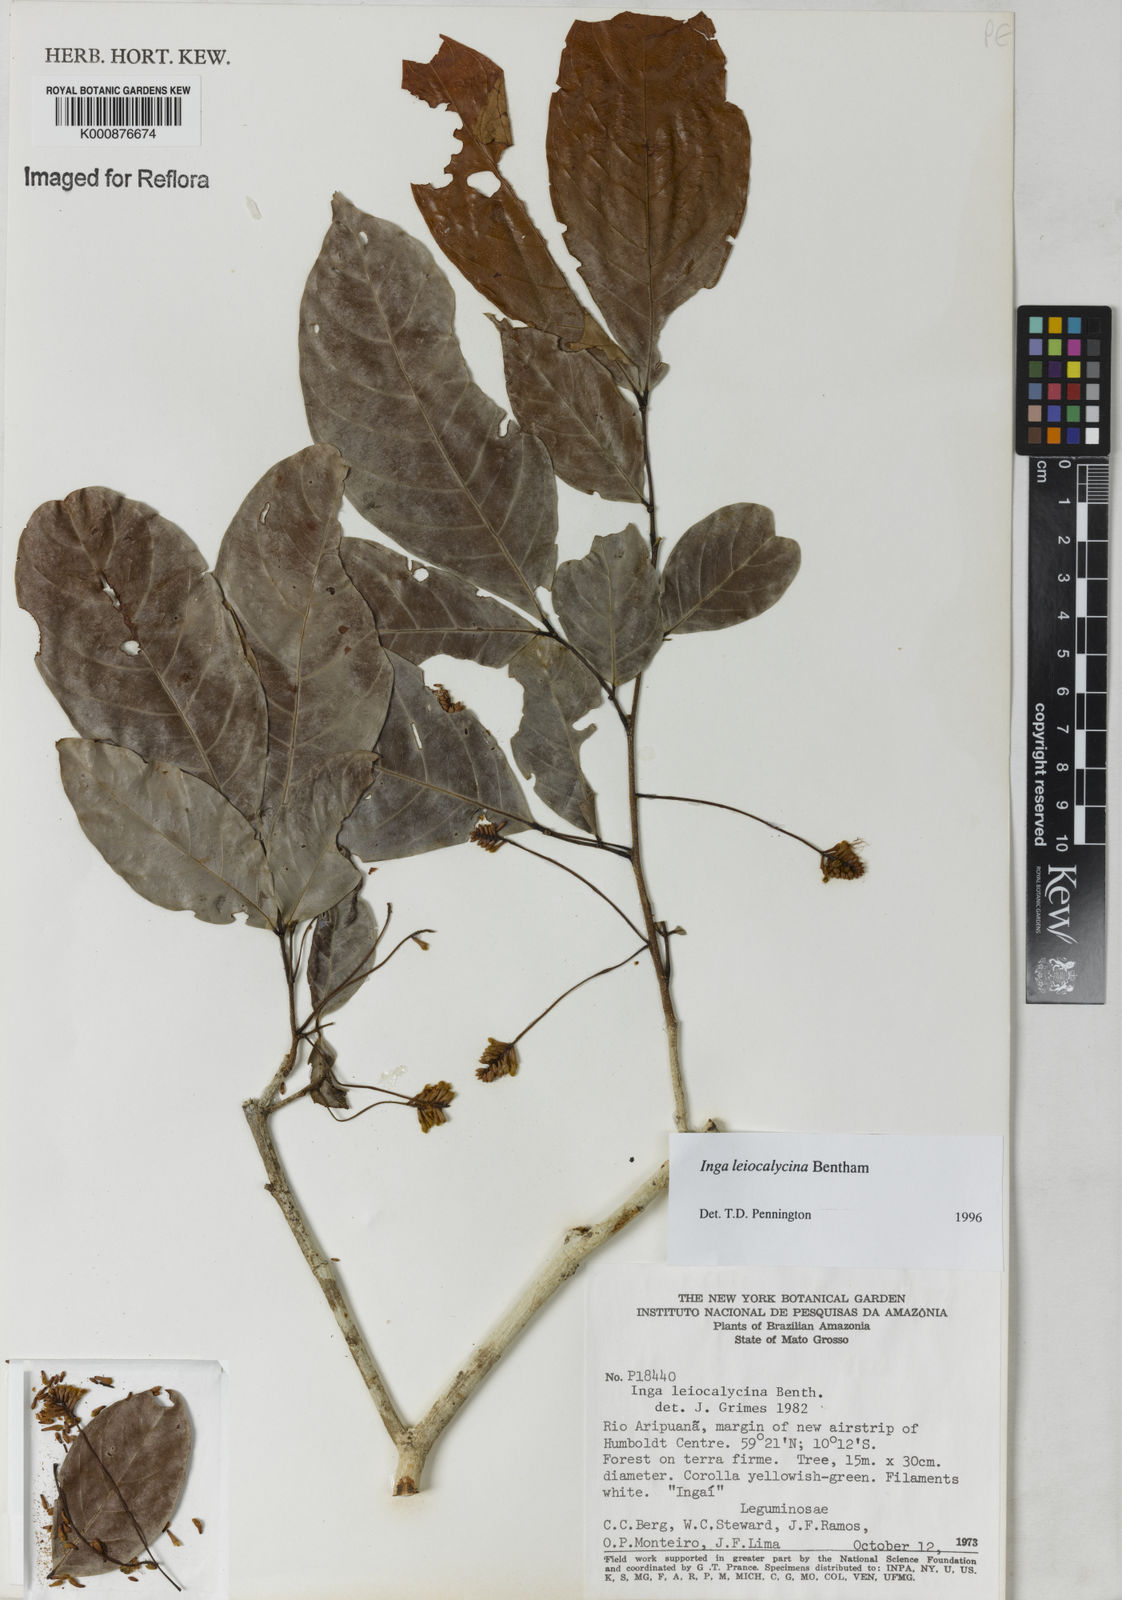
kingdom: Plantae
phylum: Tracheophyta
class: Magnoliopsida
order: Fabales
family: Fabaceae
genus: Inga
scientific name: Inga laevigata
